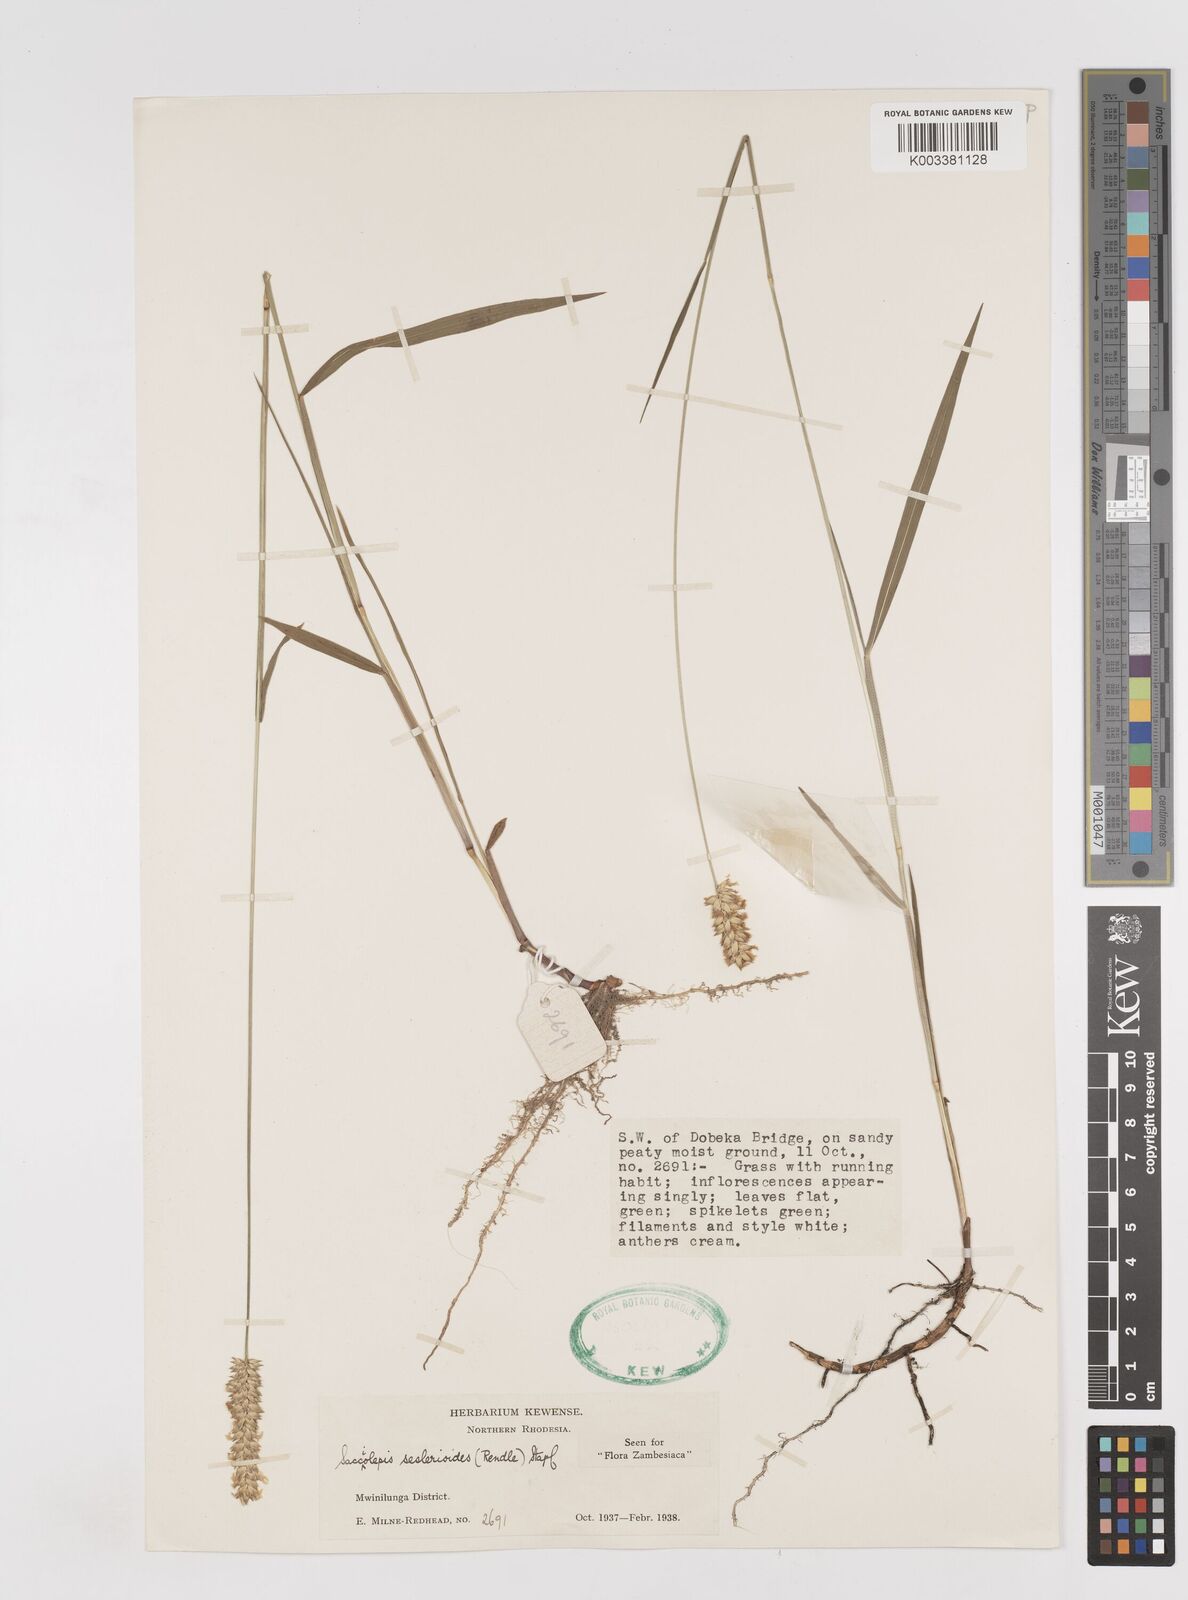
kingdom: Plantae
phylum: Tracheophyta
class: Liliopsida
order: Poales
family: Poaceae
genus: Sacciolepis
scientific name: Sacciolepis seslerioides
